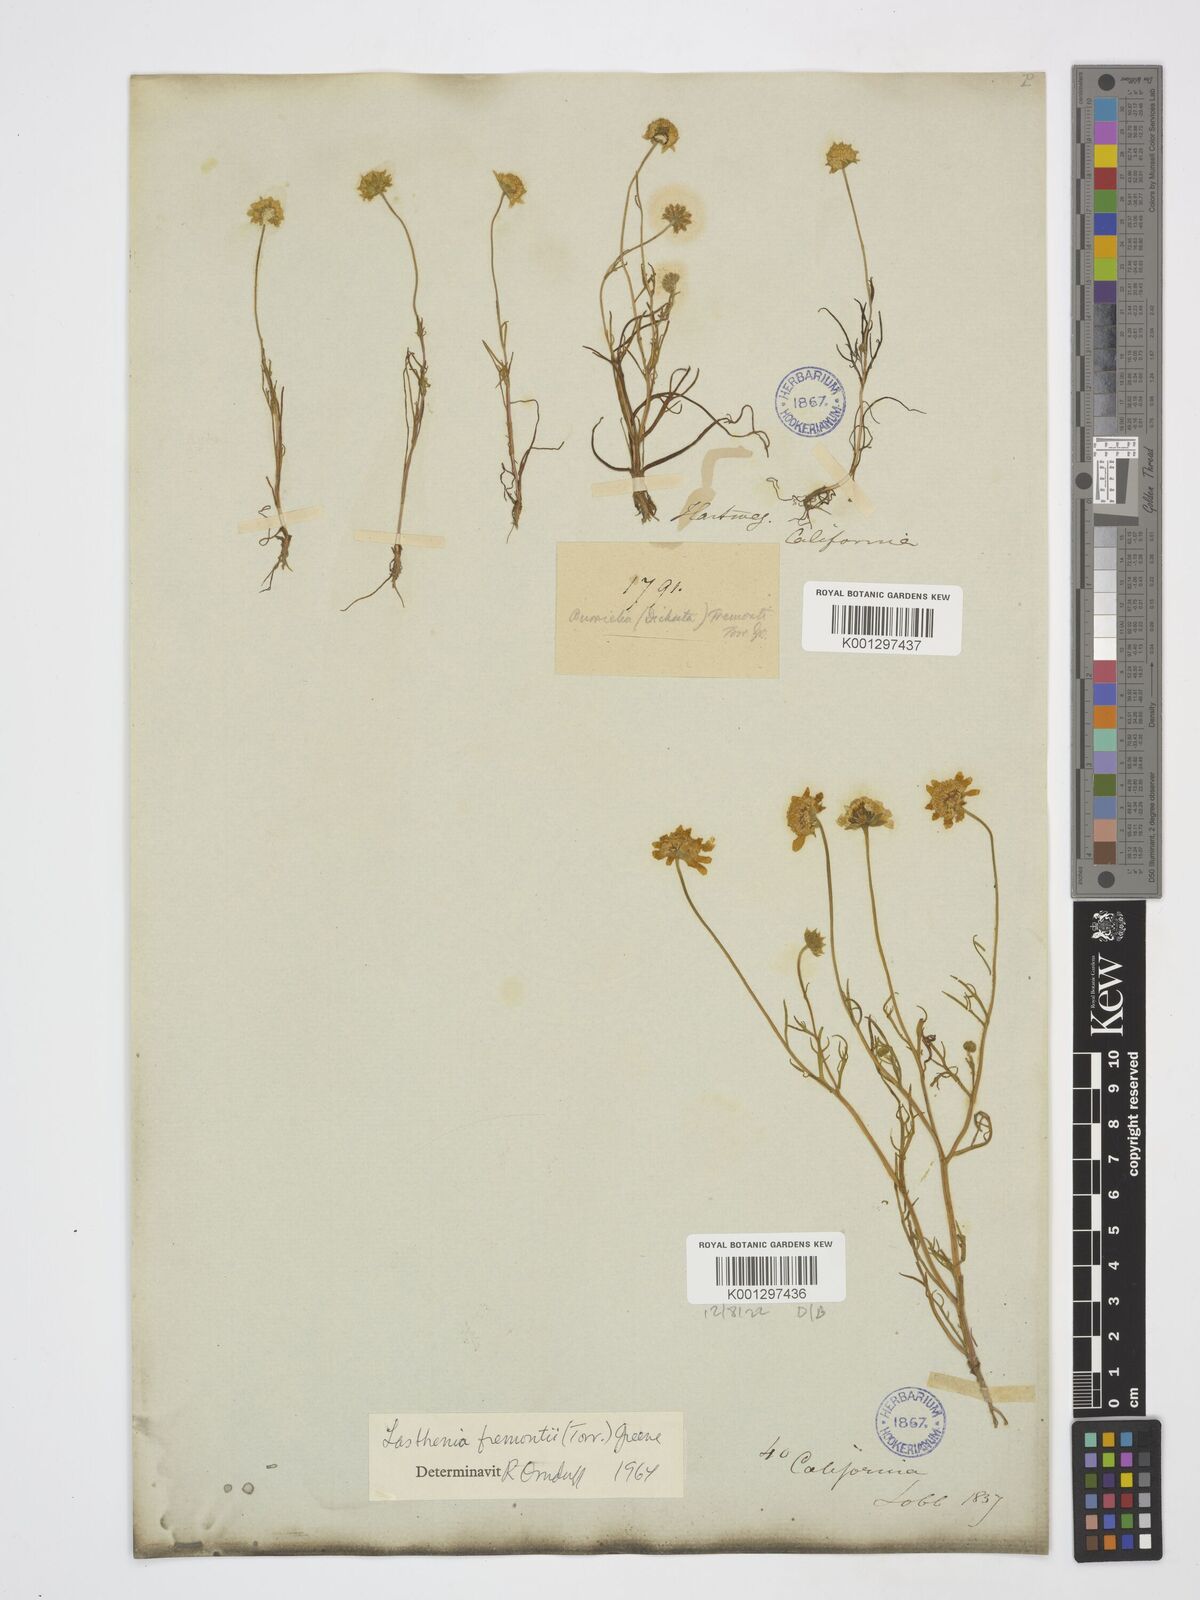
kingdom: Plantae
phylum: Tracheophyta
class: Magnoliopsida
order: Asterales
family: Asteraceae
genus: Lasthenia
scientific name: Lasthenia fremontii
